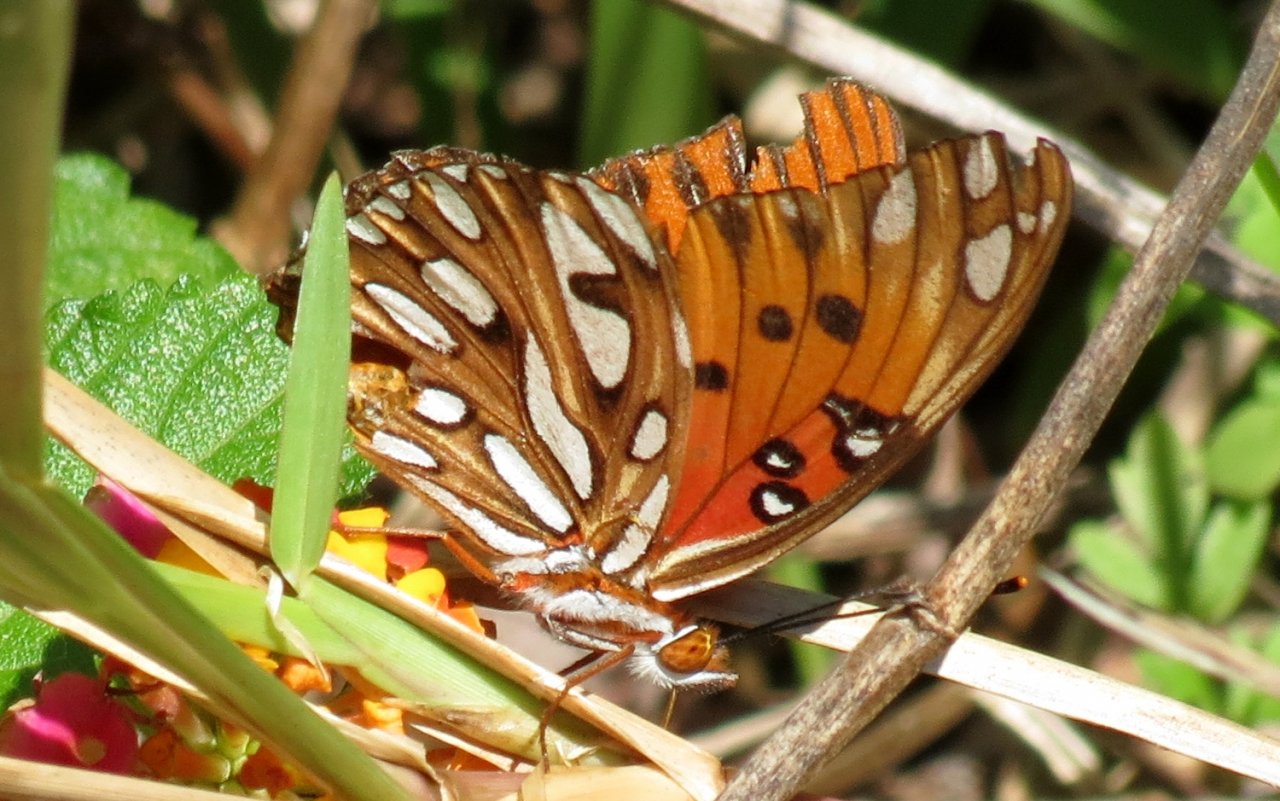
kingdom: Animalia
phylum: Arthropoda
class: Insecta
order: Lepidoptera
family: Nymphalidae
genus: Dione
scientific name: Dione vanillae
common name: Gulf Fritillary
